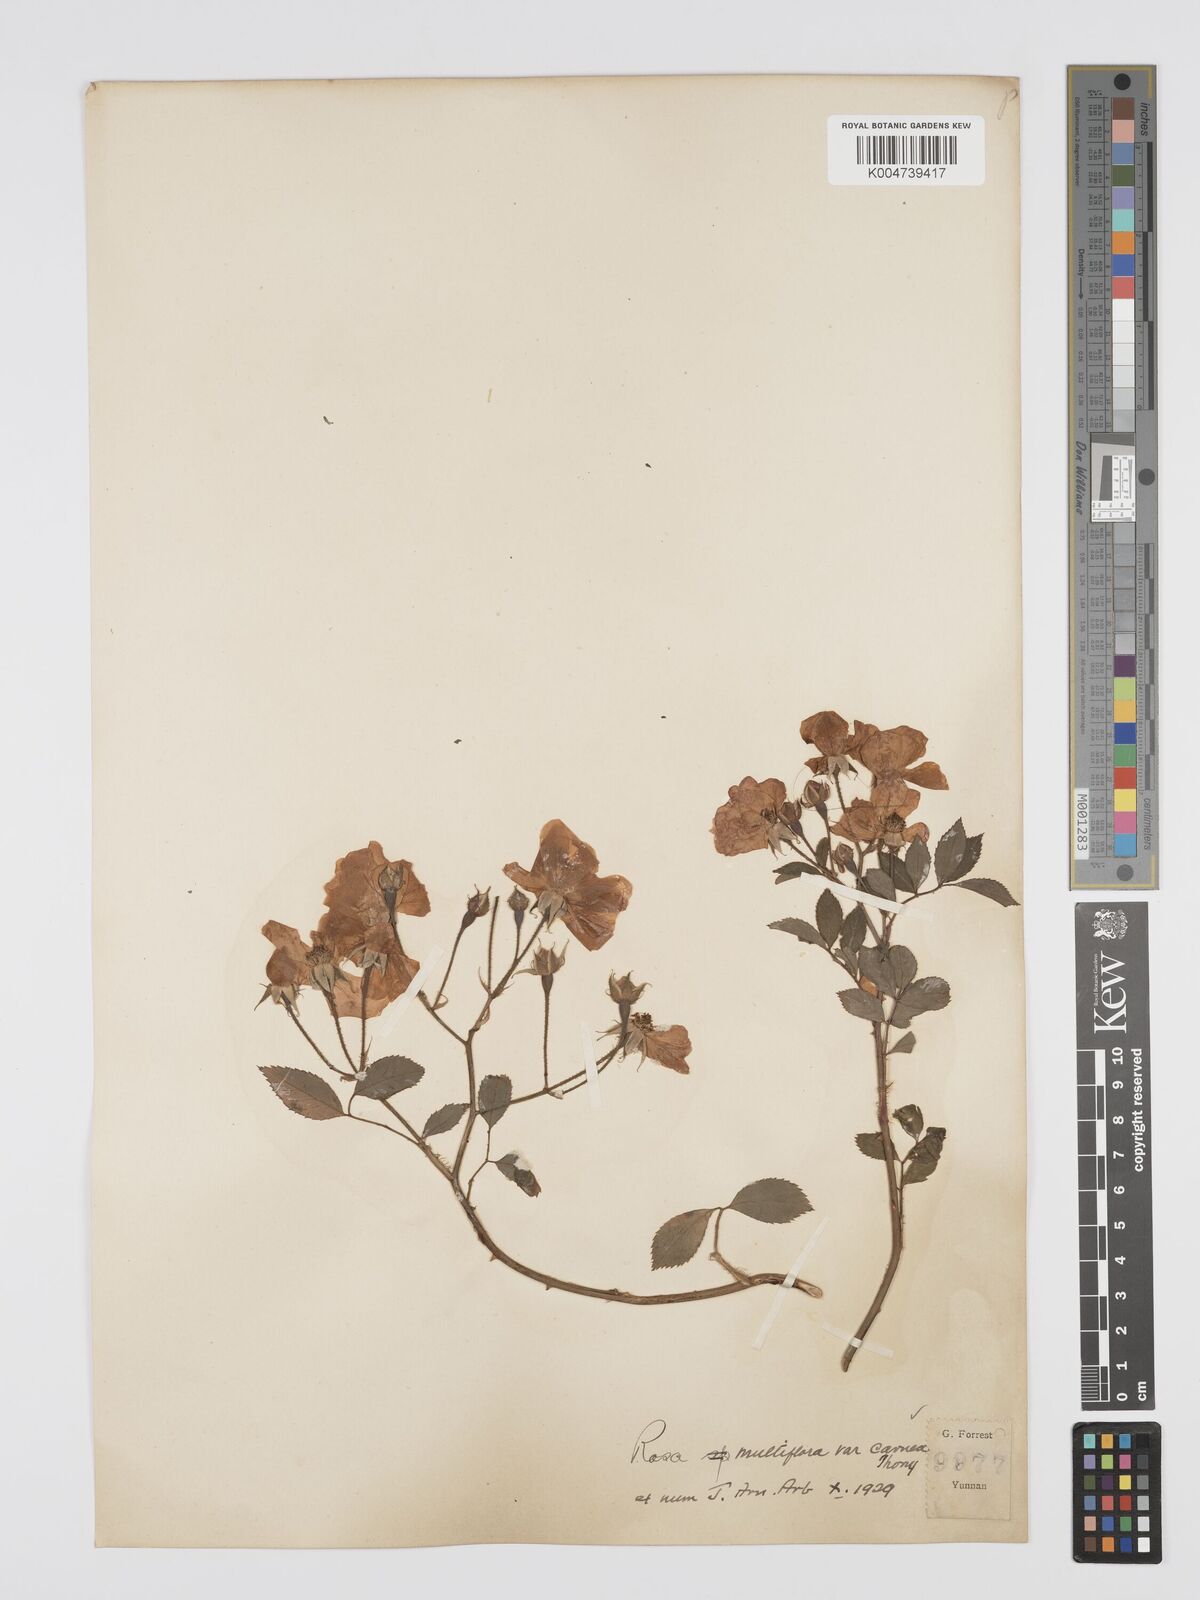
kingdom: Plantae
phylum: Tracheophyta
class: Magnoliopsida
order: Rosales
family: Rosaceae
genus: Rosa
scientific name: Rosa multiflora
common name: Multiflora rose
